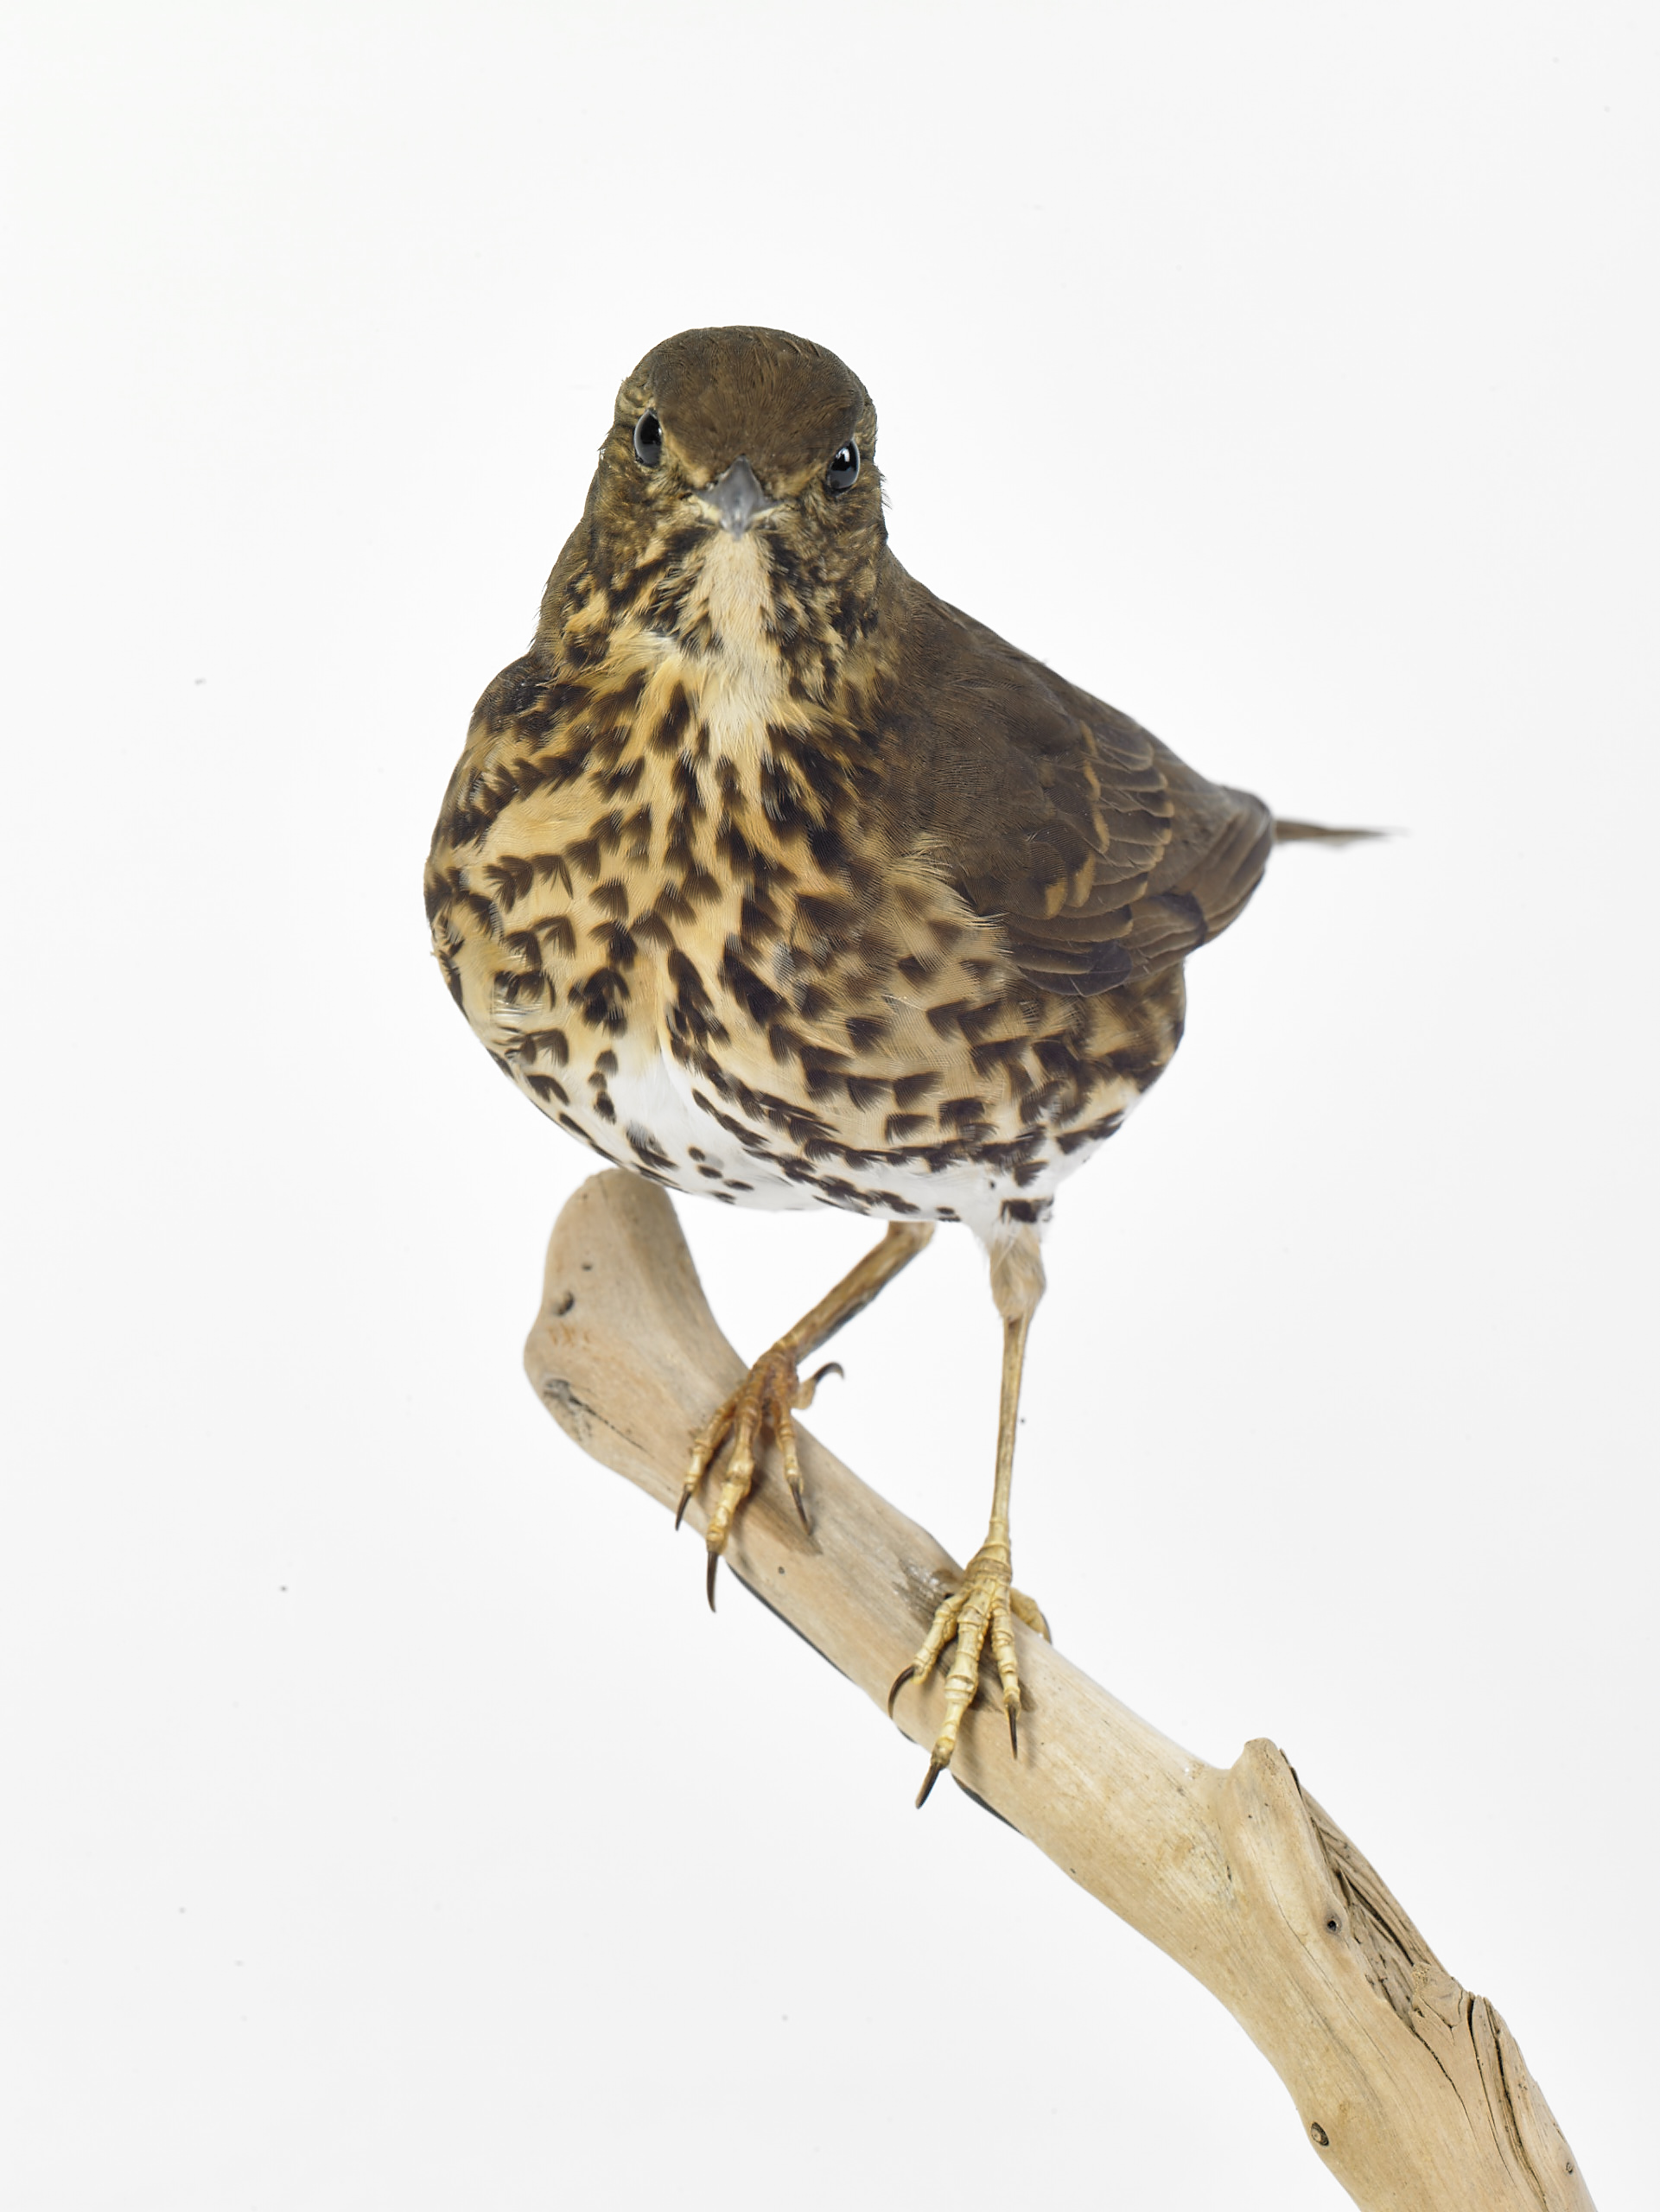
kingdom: Animalia
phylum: Chordata
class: Aves
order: Passeriformes
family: Turdidae
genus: Turdus
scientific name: Turdus philomelos
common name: Song thrush
